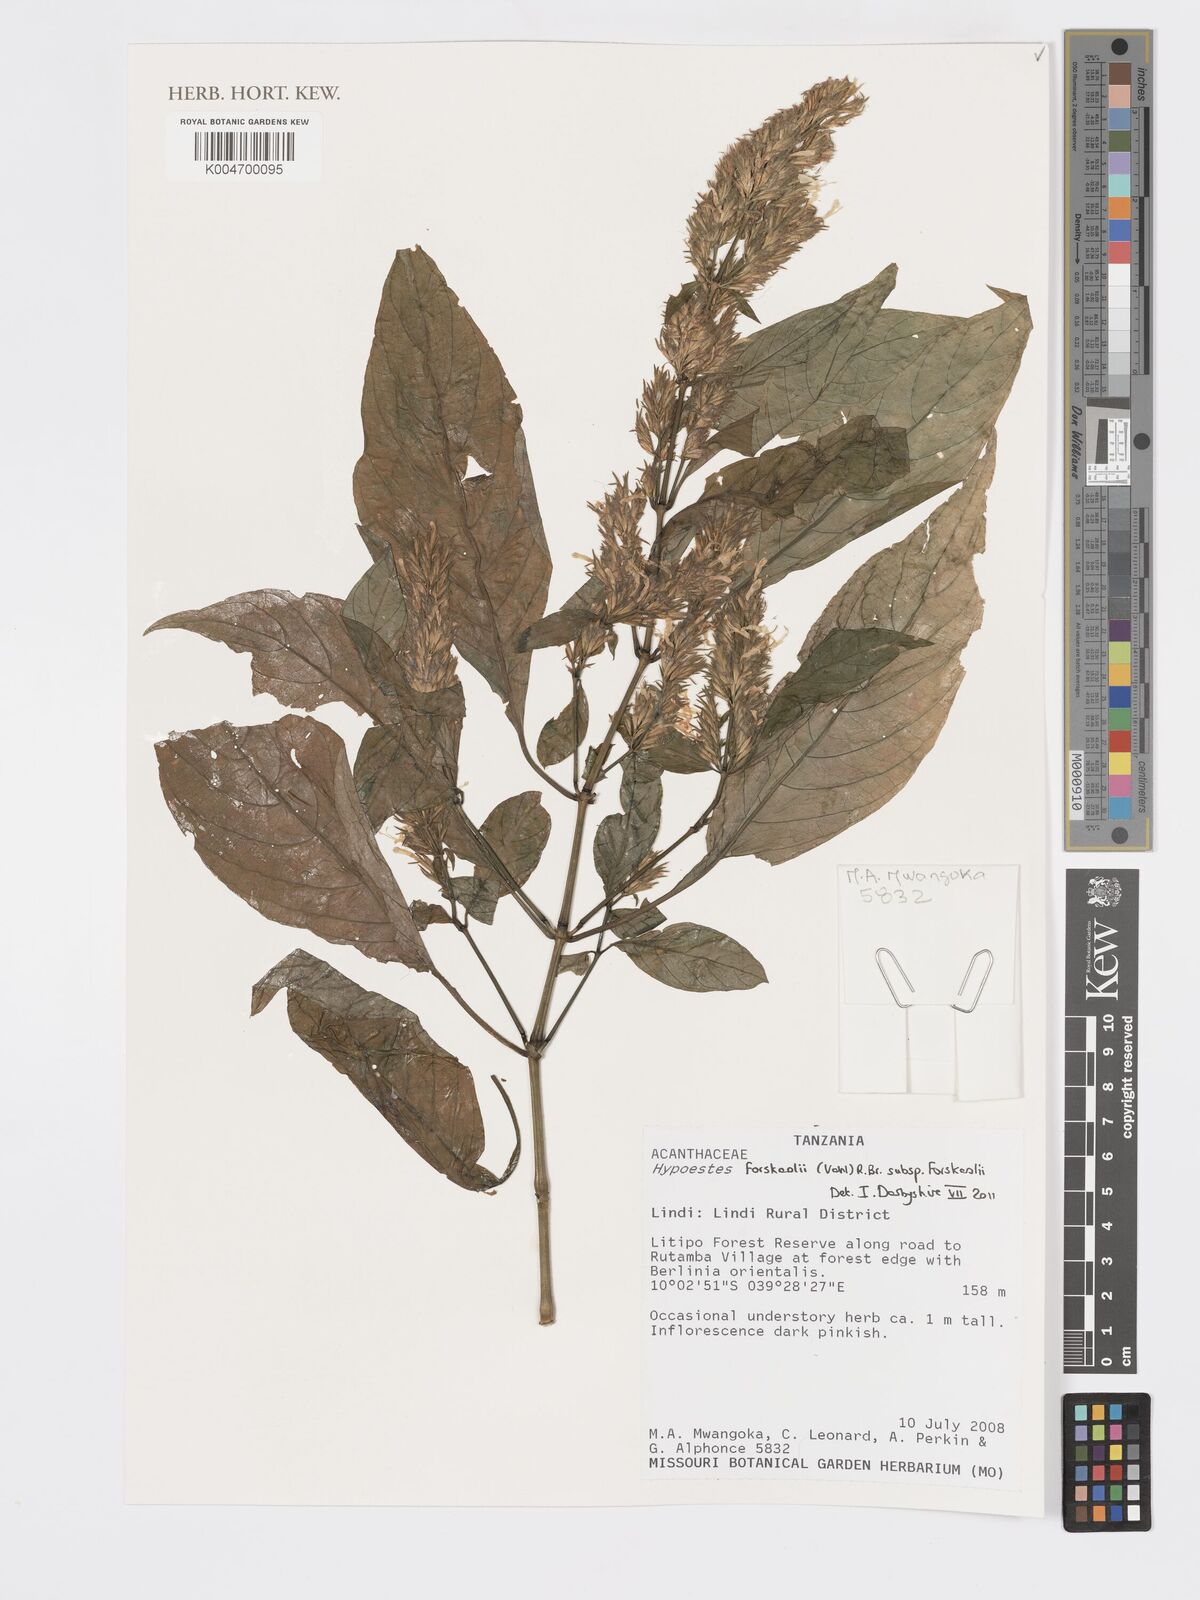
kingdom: Plantae
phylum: Tracheophyta
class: Magnoliopsida
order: Lamiales
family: Acanthaceae
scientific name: Acanthaceae
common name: Acanthaceae
